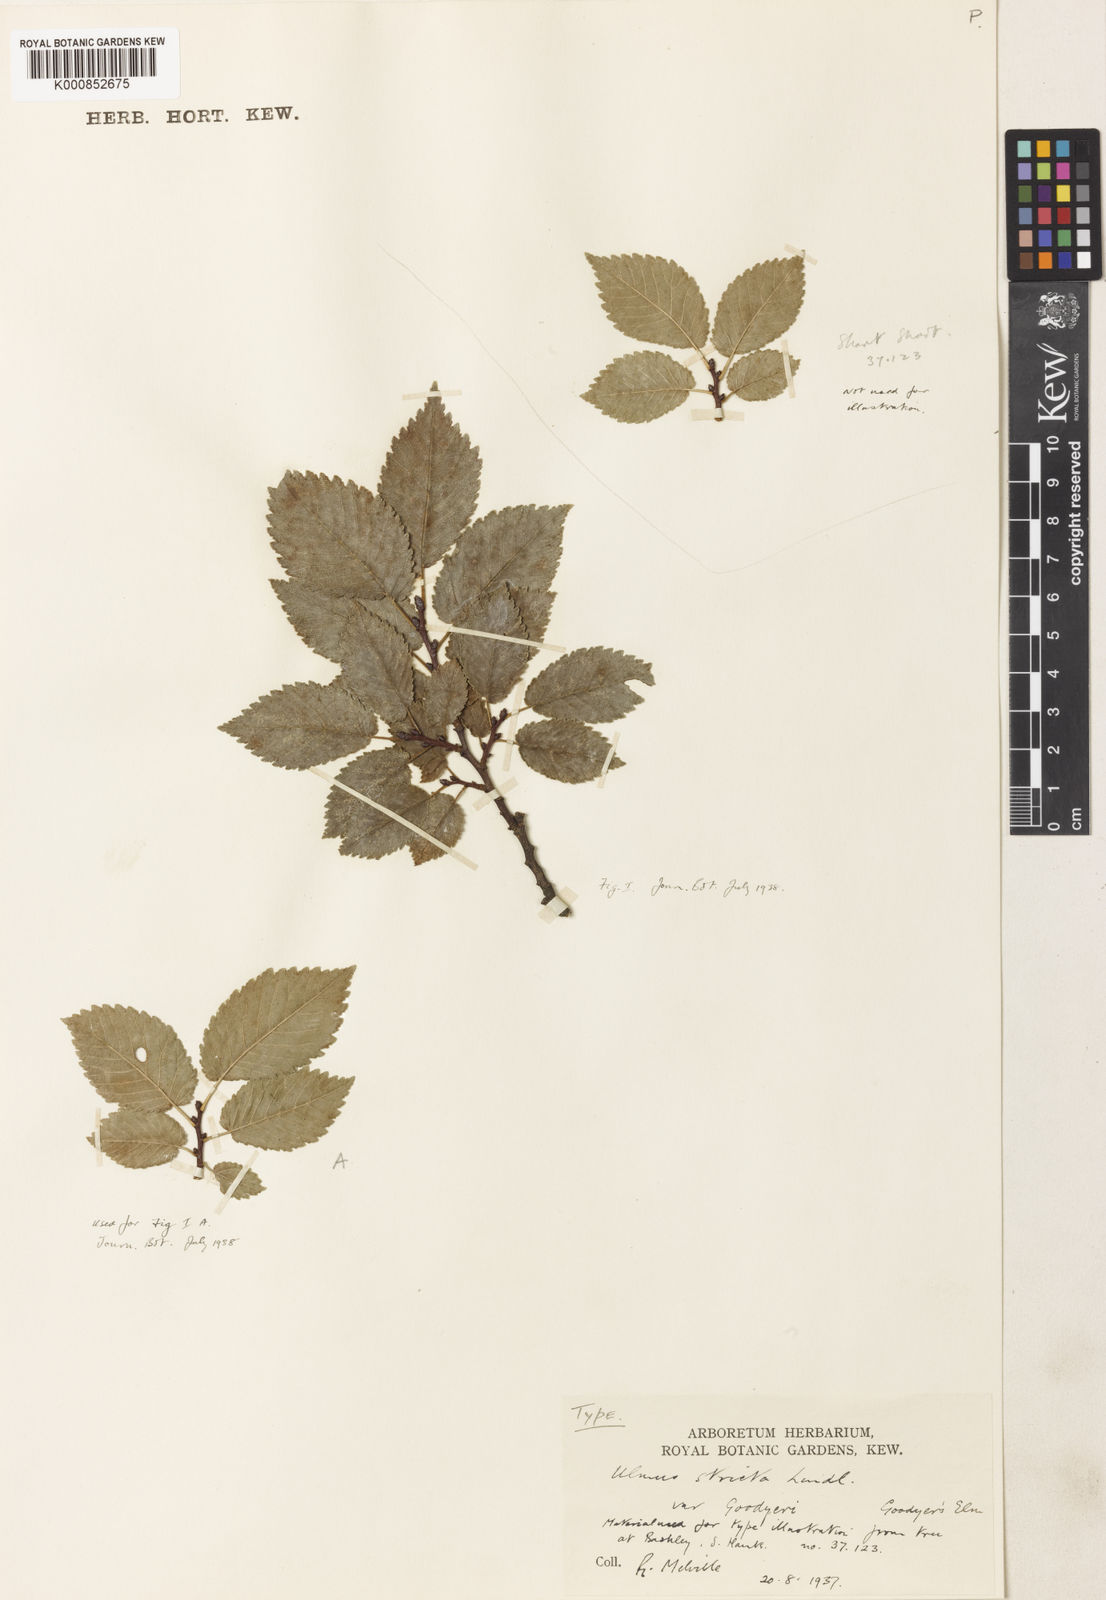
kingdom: Plantae
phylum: Tracheophyta
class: Magnoliopsida
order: Rosales
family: Ulmaceae
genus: Ulmus
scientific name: Ulmus
